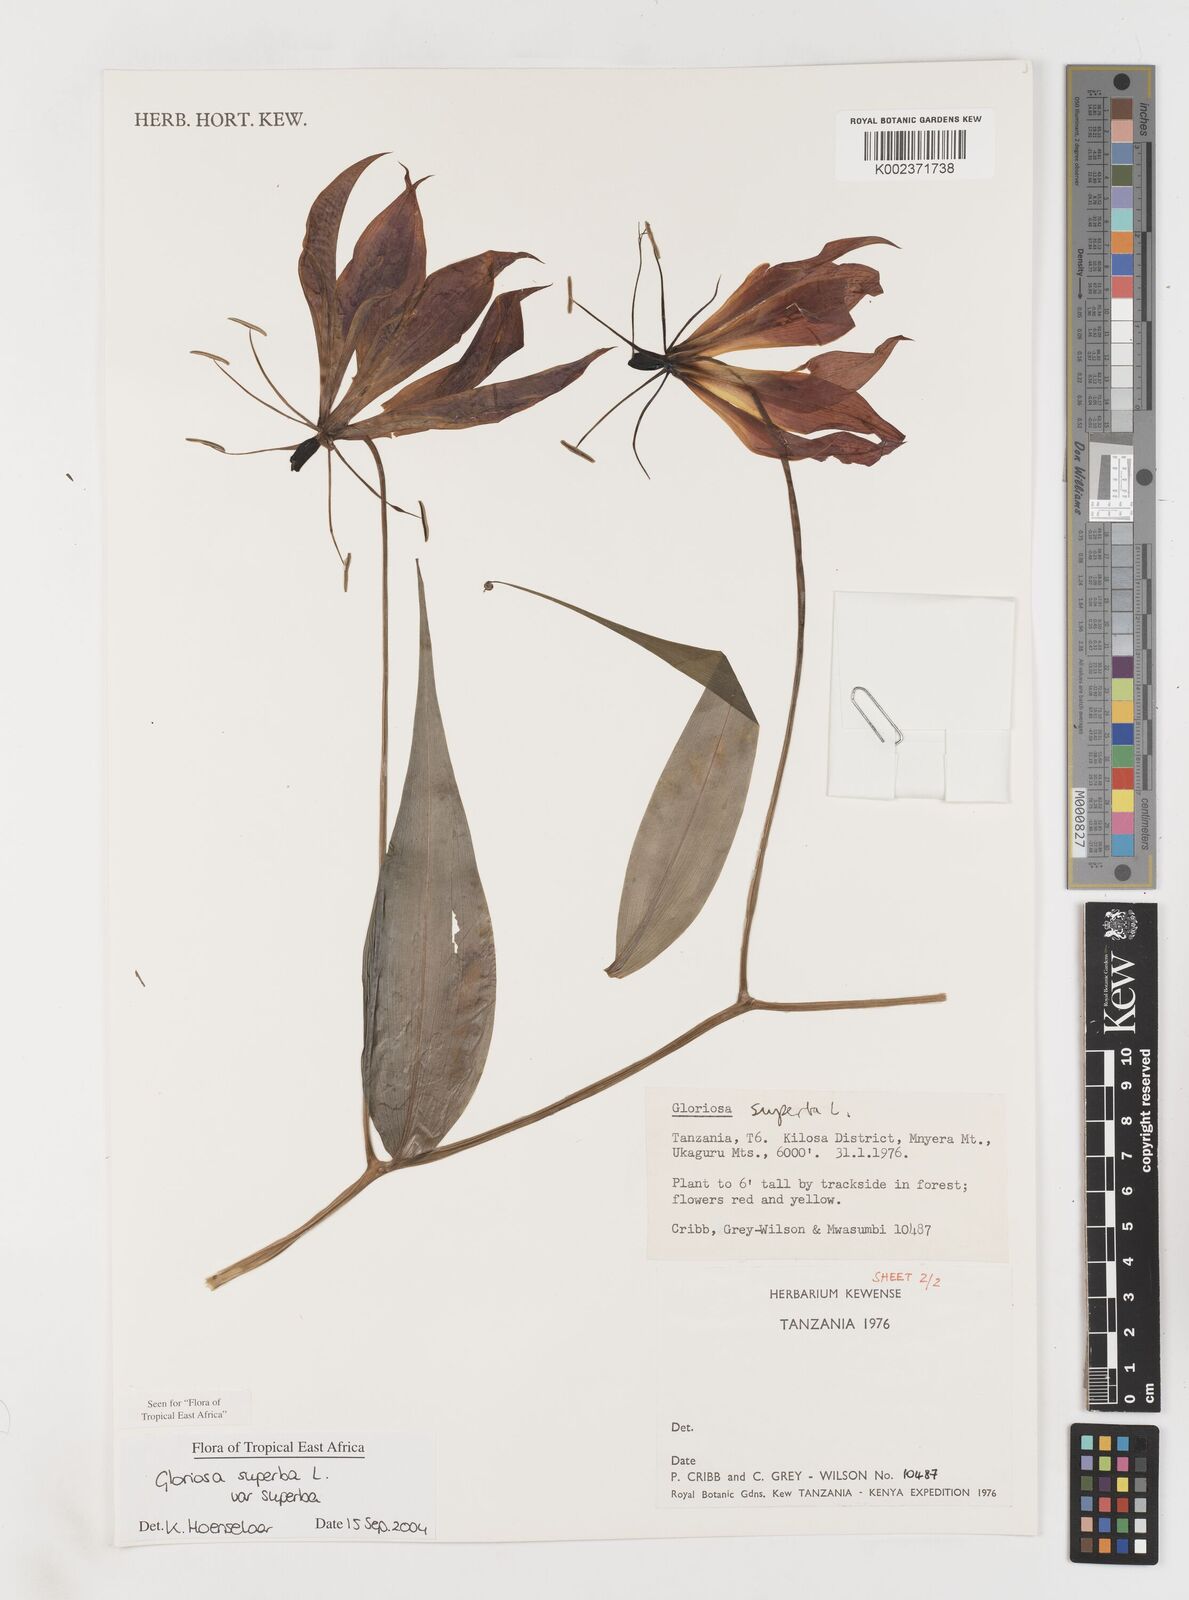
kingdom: Plantae
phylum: Tracheophyta
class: Liliopsida
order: Liliales
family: Colchicaceae
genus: Gloriosa
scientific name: Gloriosa simplex
